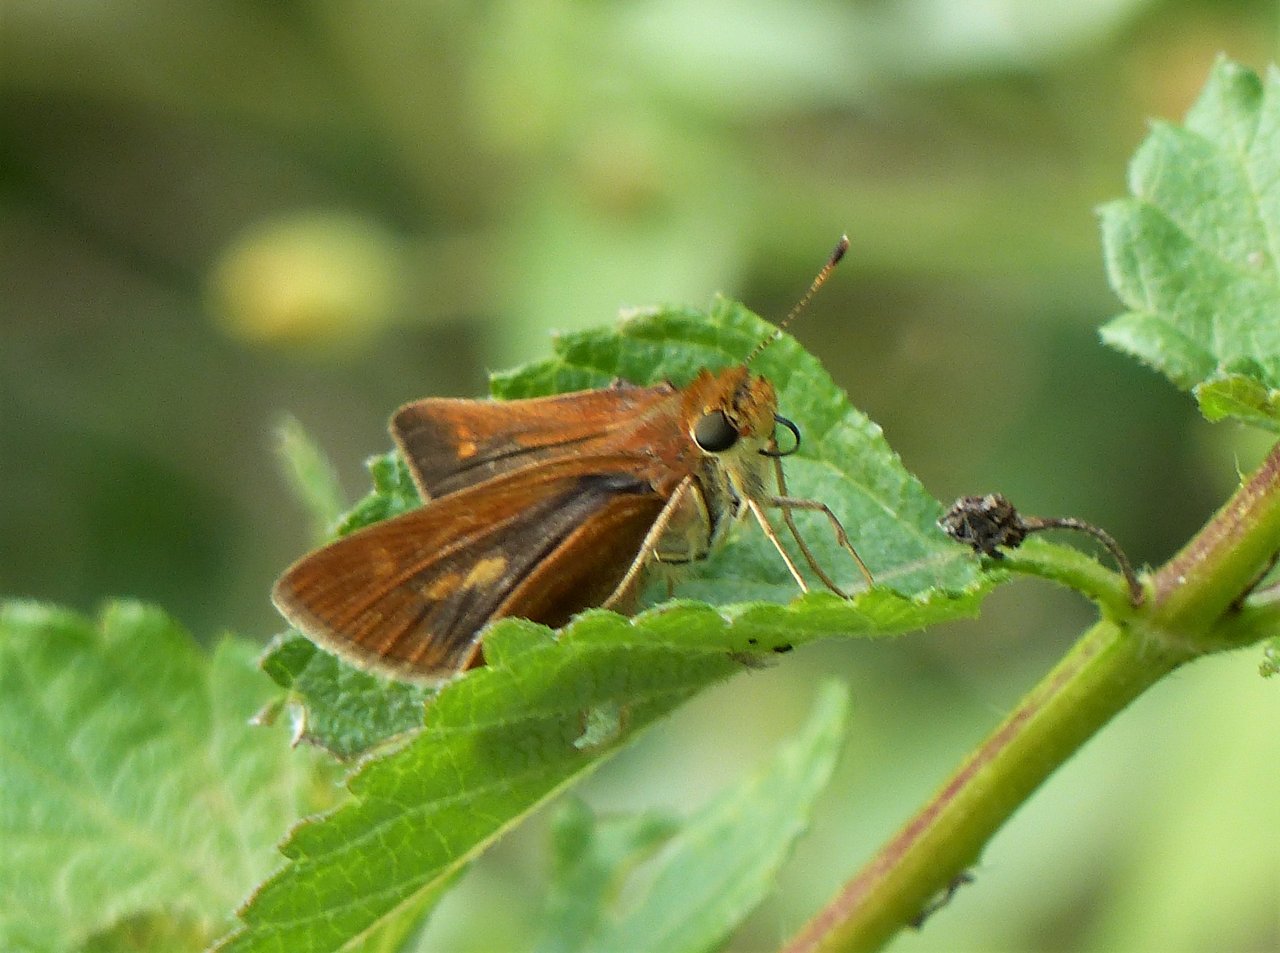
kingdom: Animalia
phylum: Arthropoda
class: Insecta
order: Lepidoptera
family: Hesperiidae
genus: Wallengrenia
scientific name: Wallengrenia otho
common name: Southern Broken-Dash
